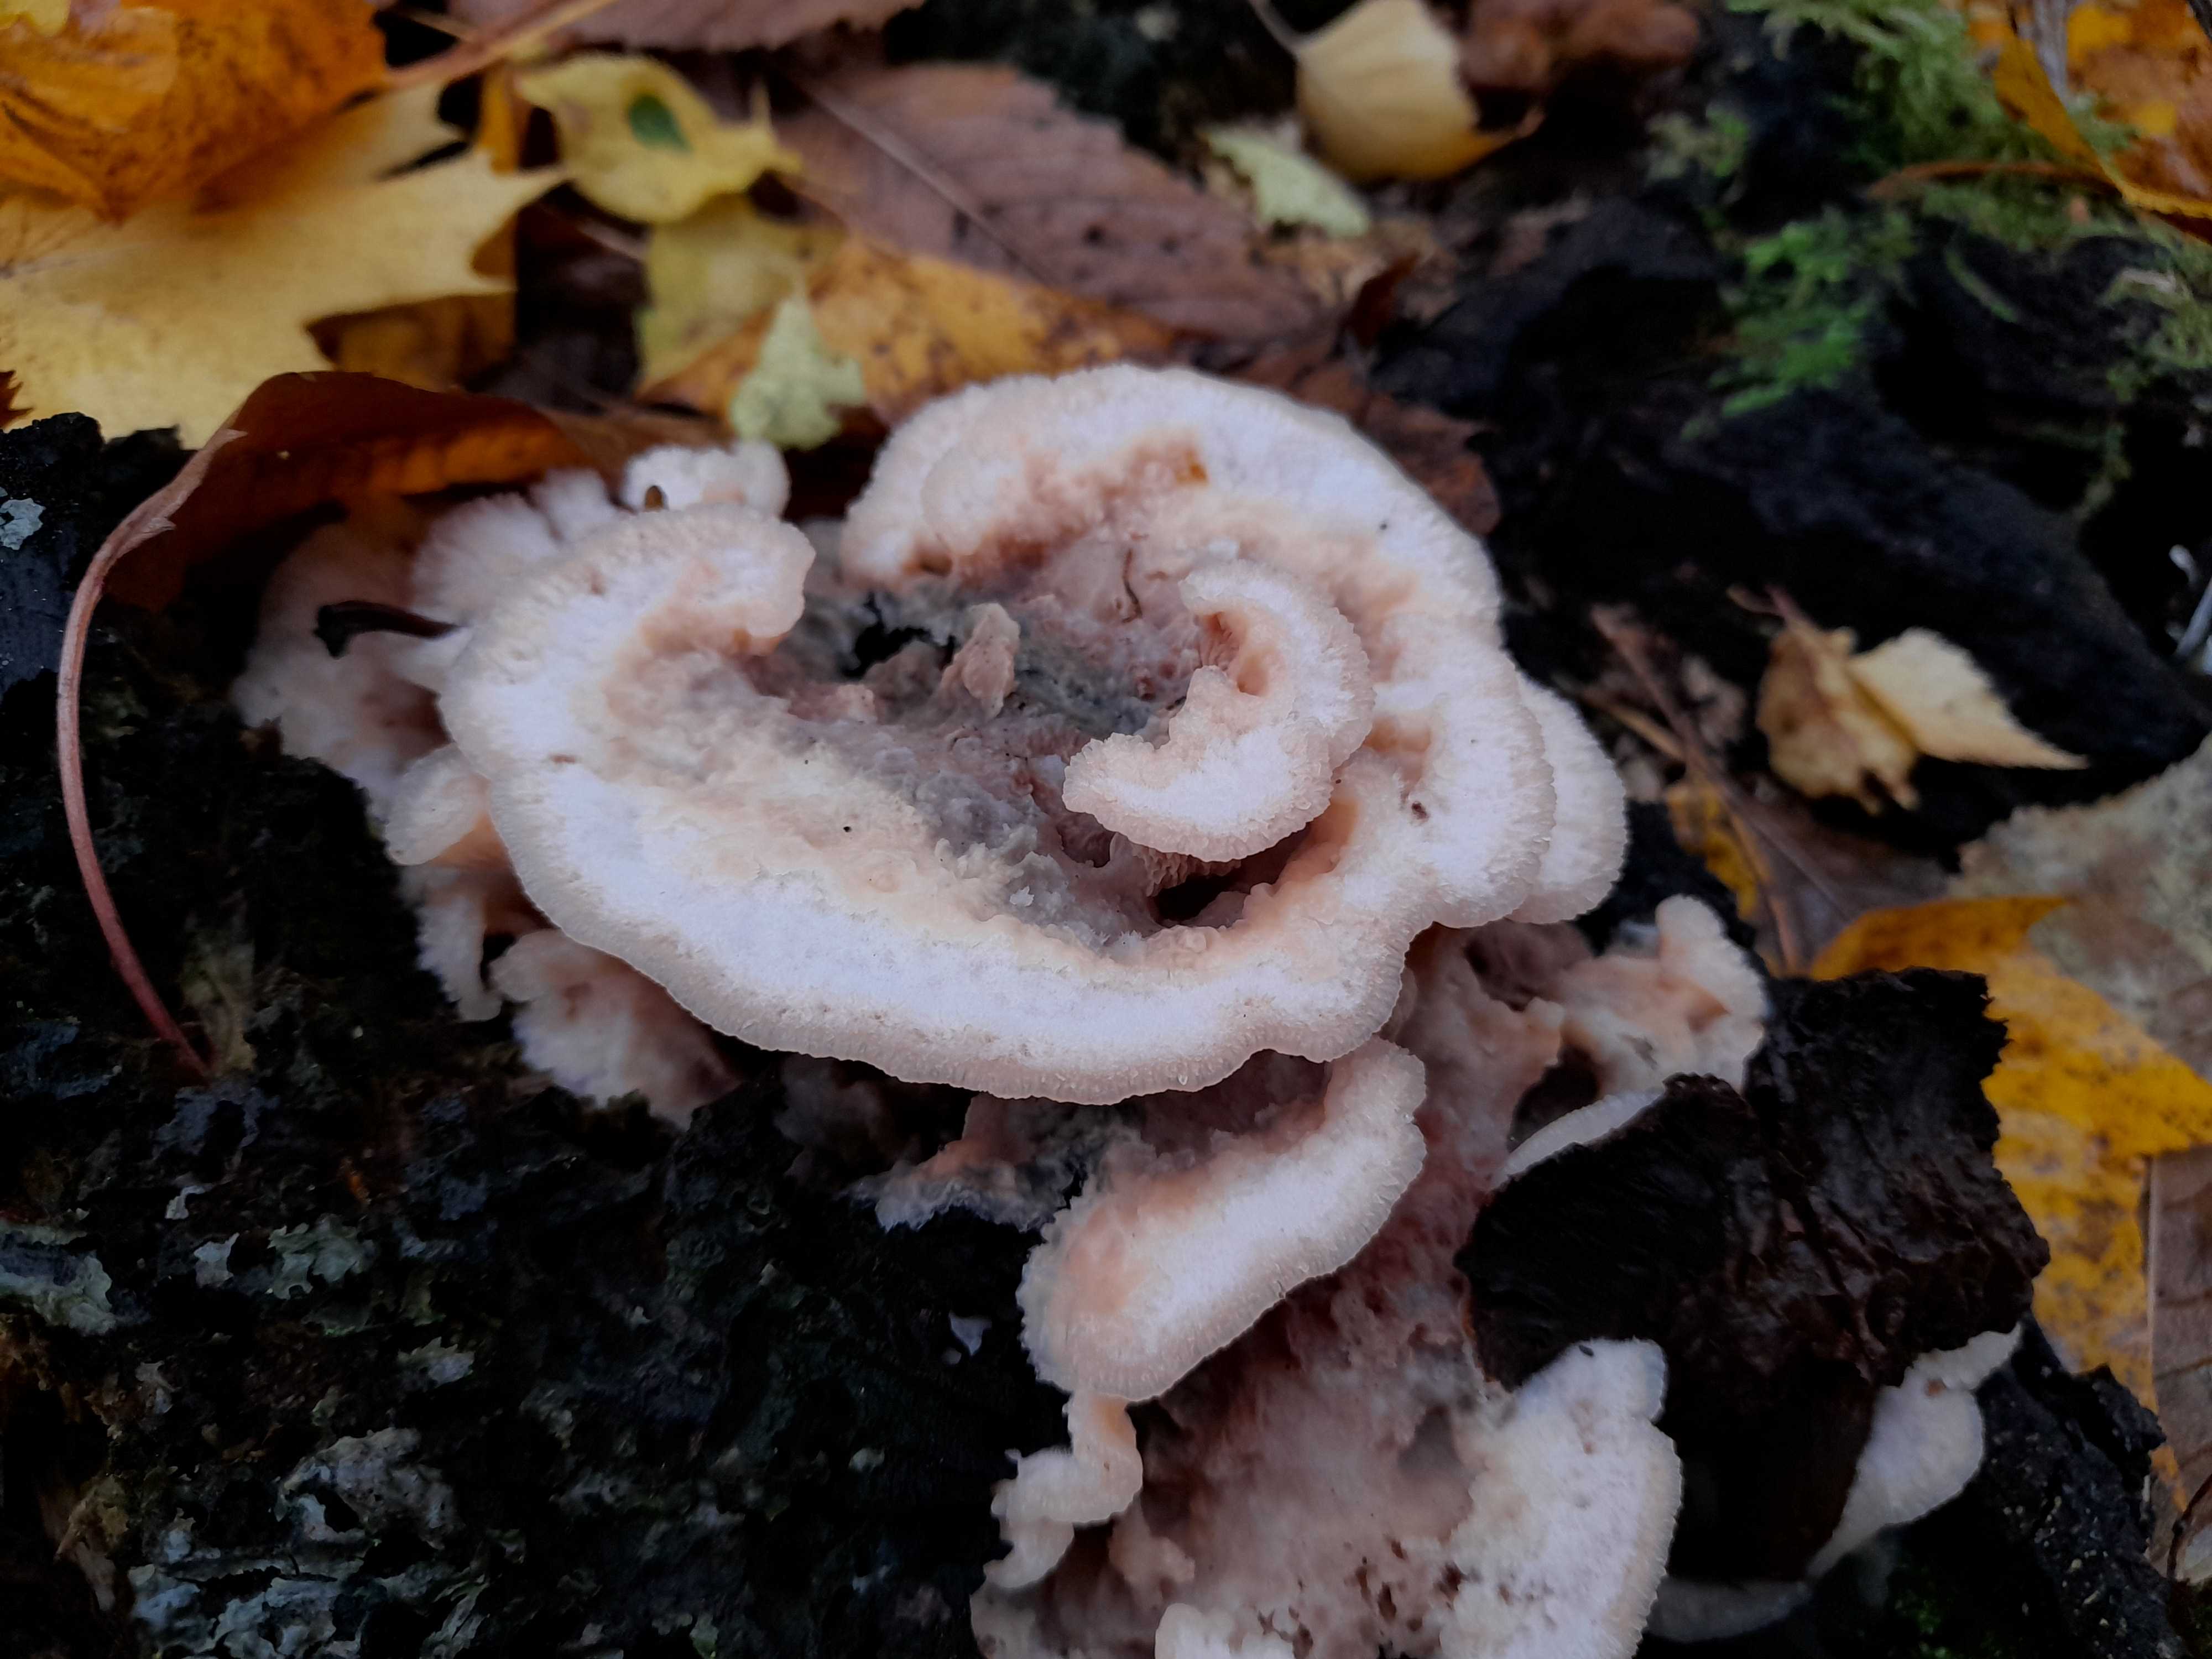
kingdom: Fungi
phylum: Basidiomycota
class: Agaricomycetes
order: Polyporales
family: Meruliaceae
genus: Phlebia
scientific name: Phlebia tremellosa
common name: bævrende åresvamp
